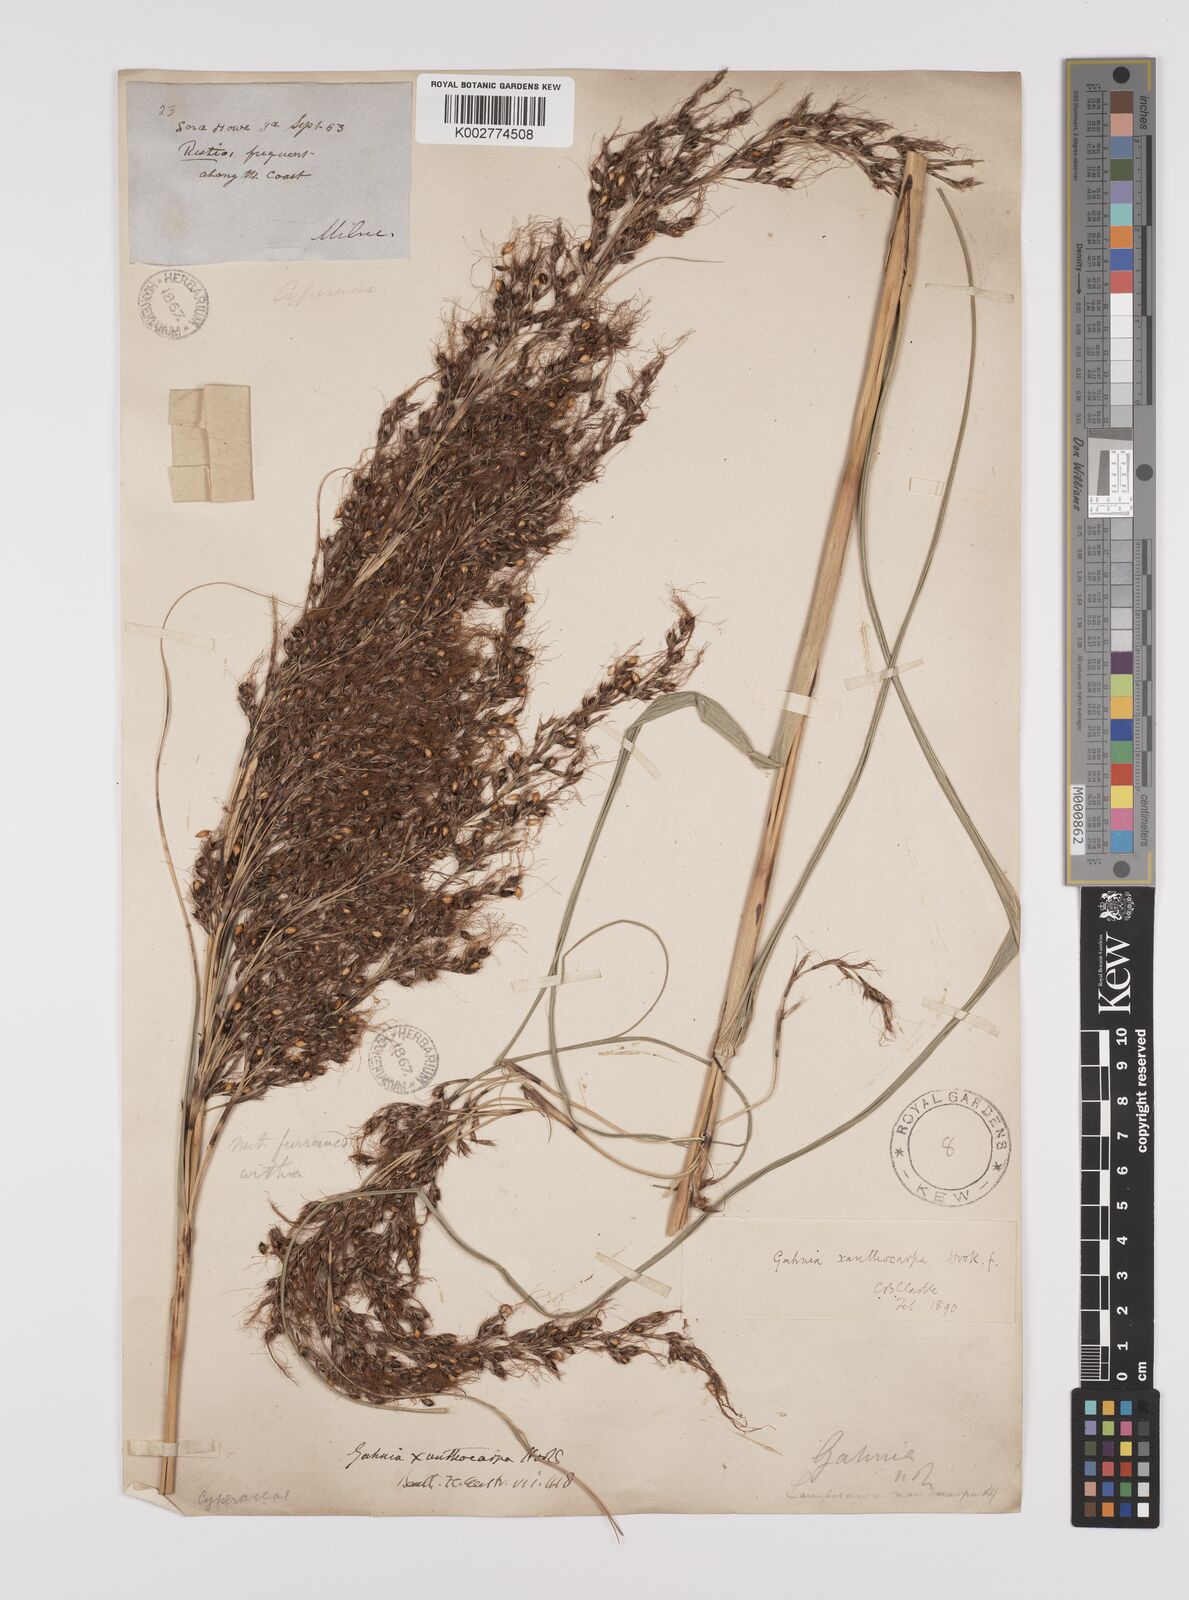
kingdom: Plantae
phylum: Tracheophyta
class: Liliopsida
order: Poales
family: Cyperaceae
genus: Gahnia
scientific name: Gahnia xanthocarpa
